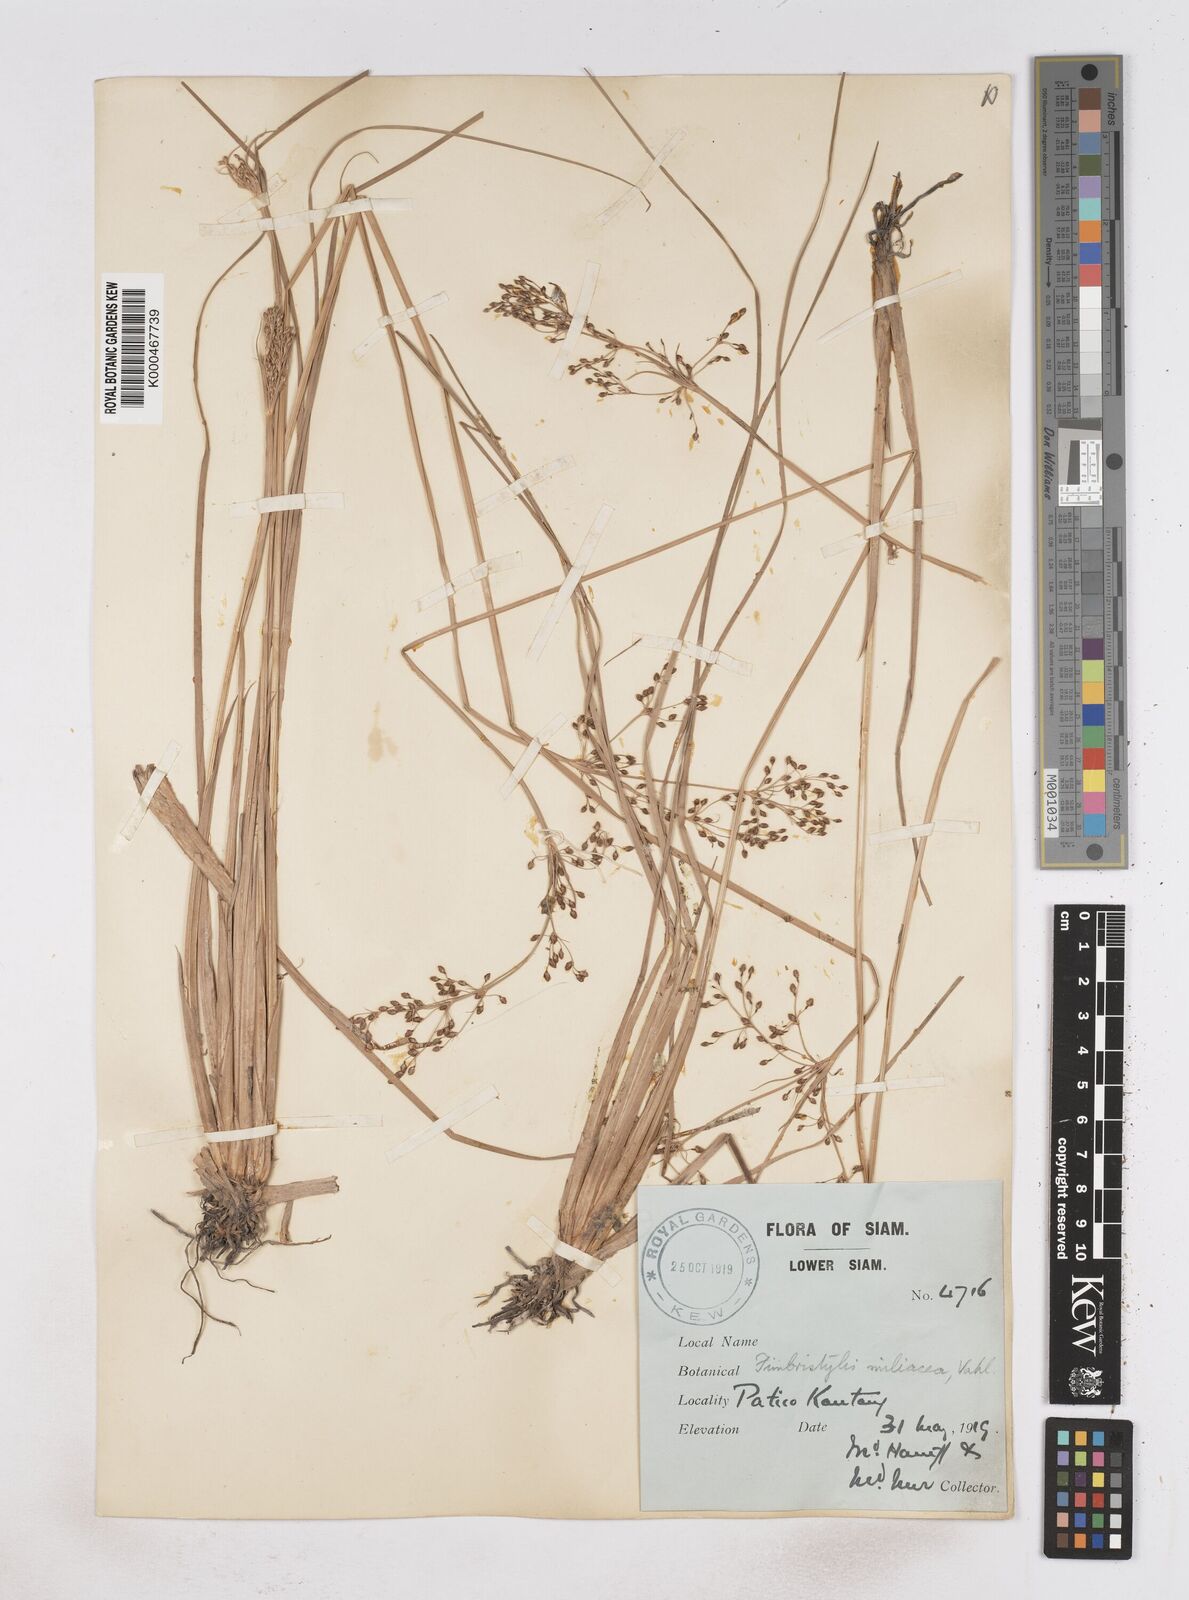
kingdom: Plantae
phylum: Tracheophyta
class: Liliopsida
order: Poales
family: Cyperaceae
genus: Fimbristylis
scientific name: Fimbristylis quinquangularis
